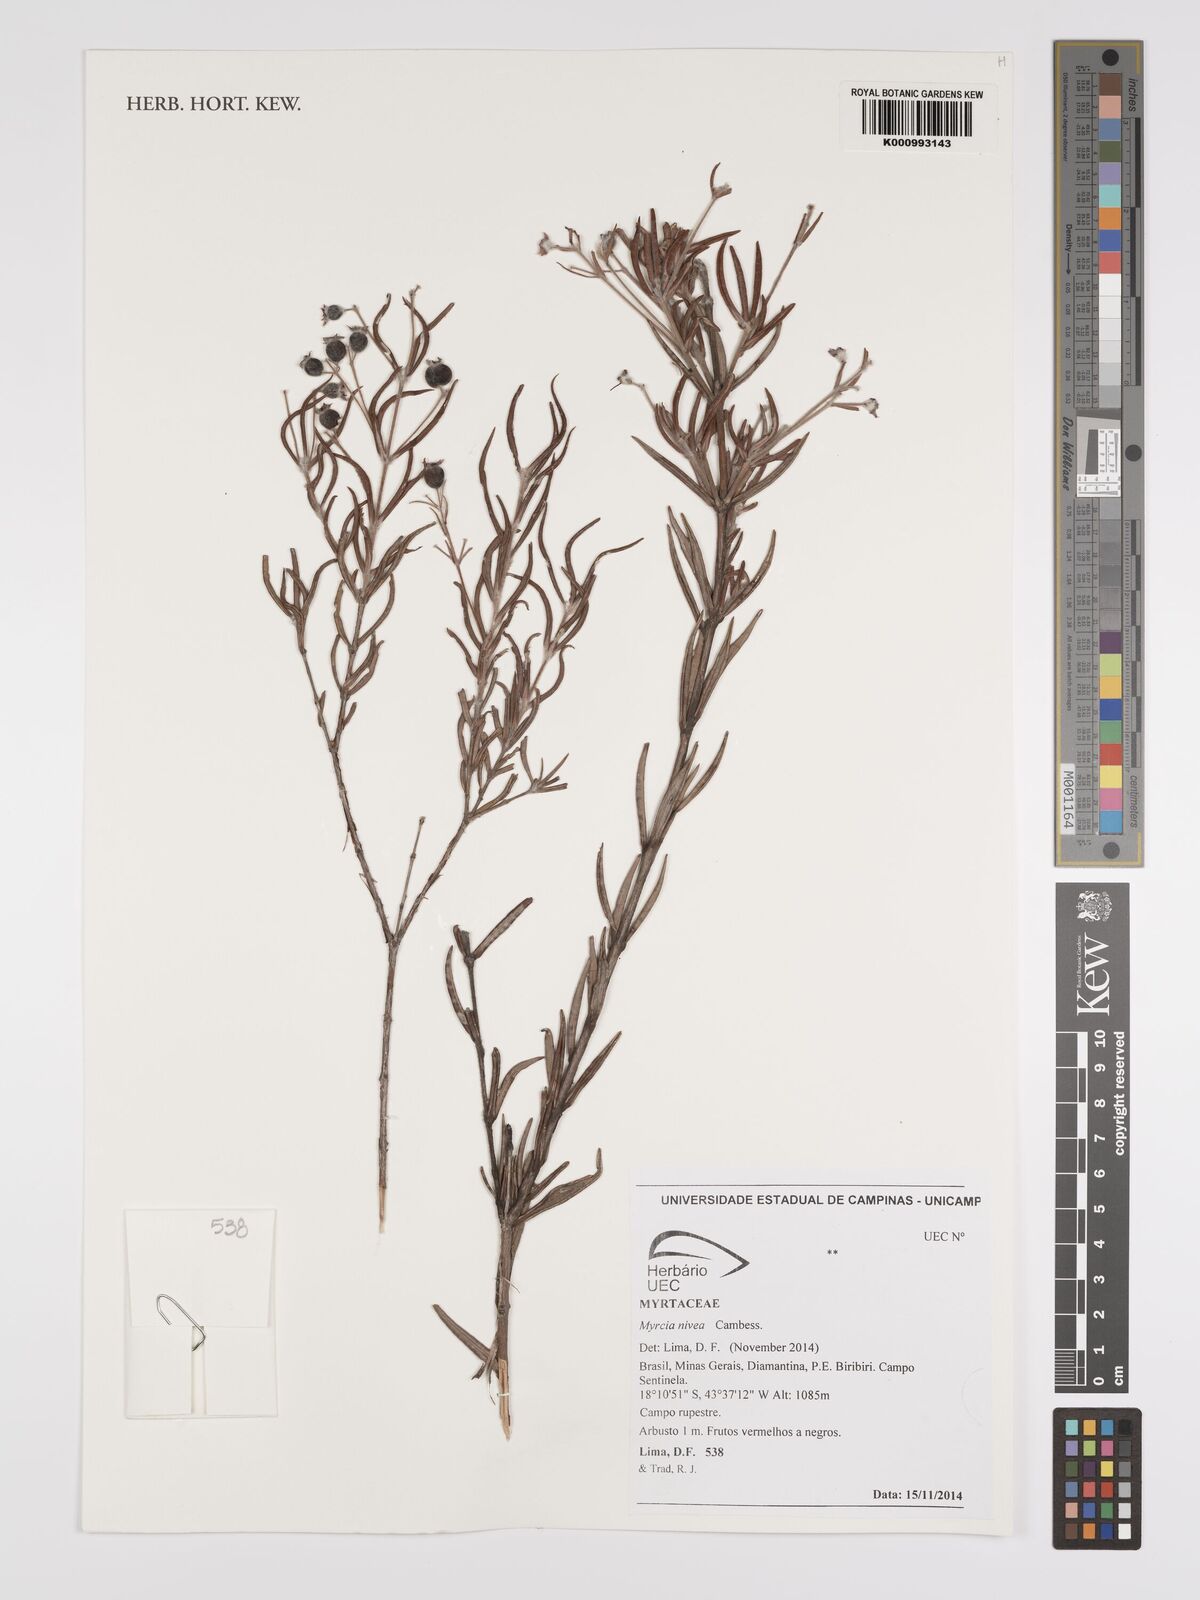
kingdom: Plantae
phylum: Tracheophyta
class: Magnoliopsida
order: Myrtales
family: Myrtaceae
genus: Myrcia
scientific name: Myrcia nivea
